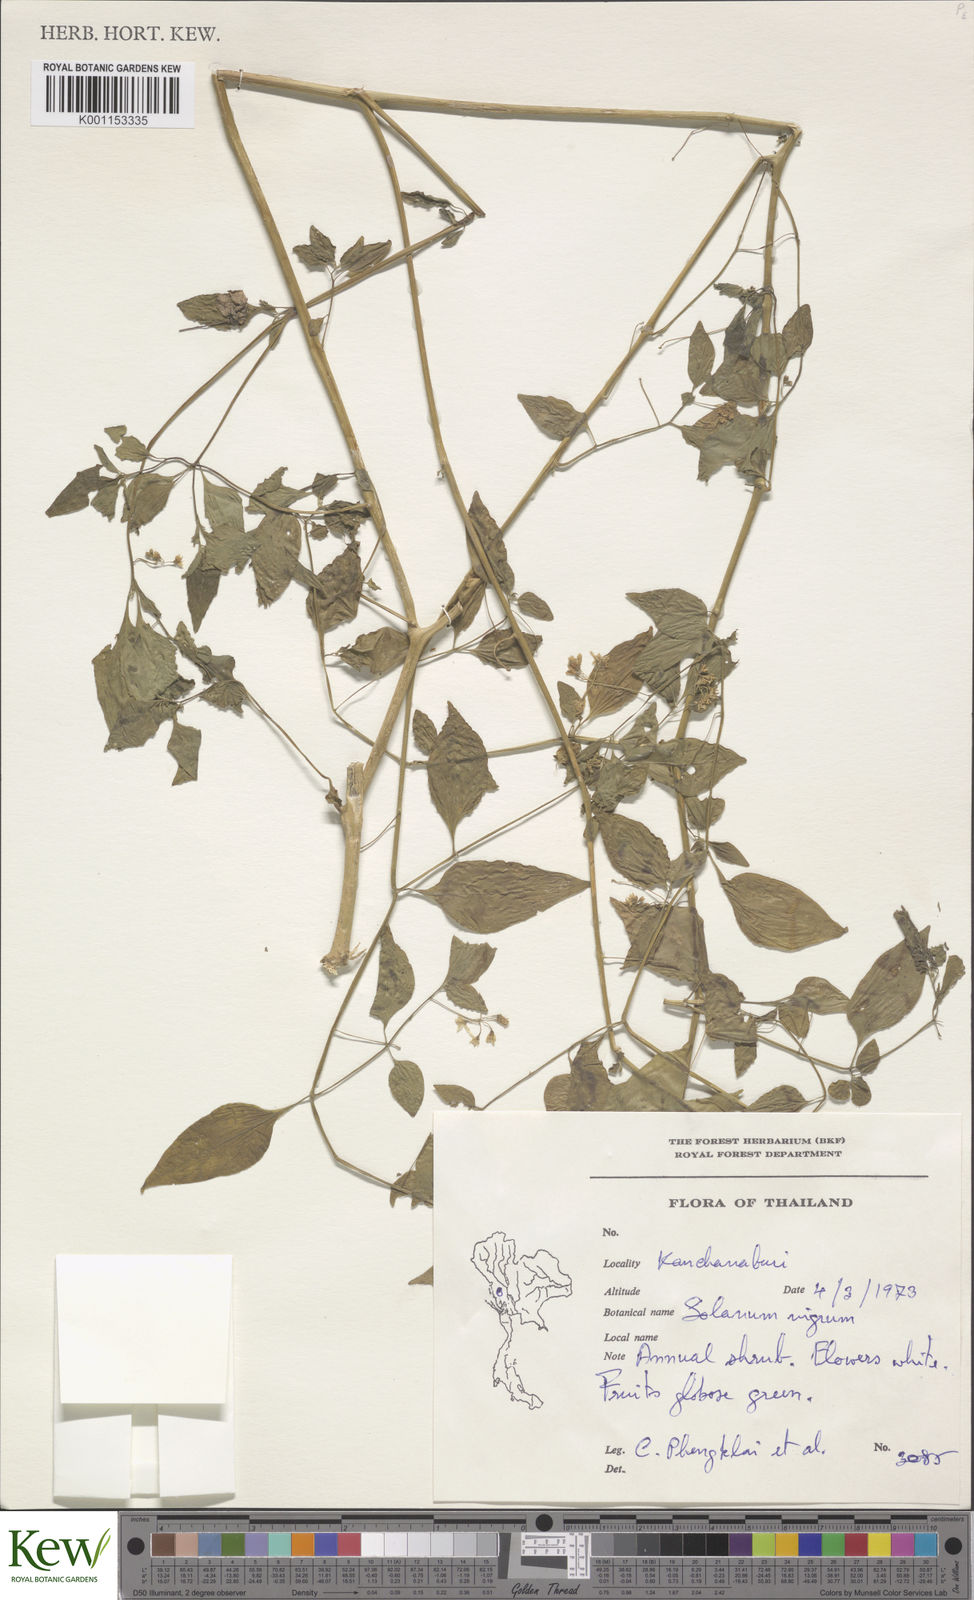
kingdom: Plantae
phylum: Tracheophyta
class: Magnoliopsida
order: Solanales
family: Solanaceae
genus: Solanum
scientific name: Solanum americanum
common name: American black nightshade
